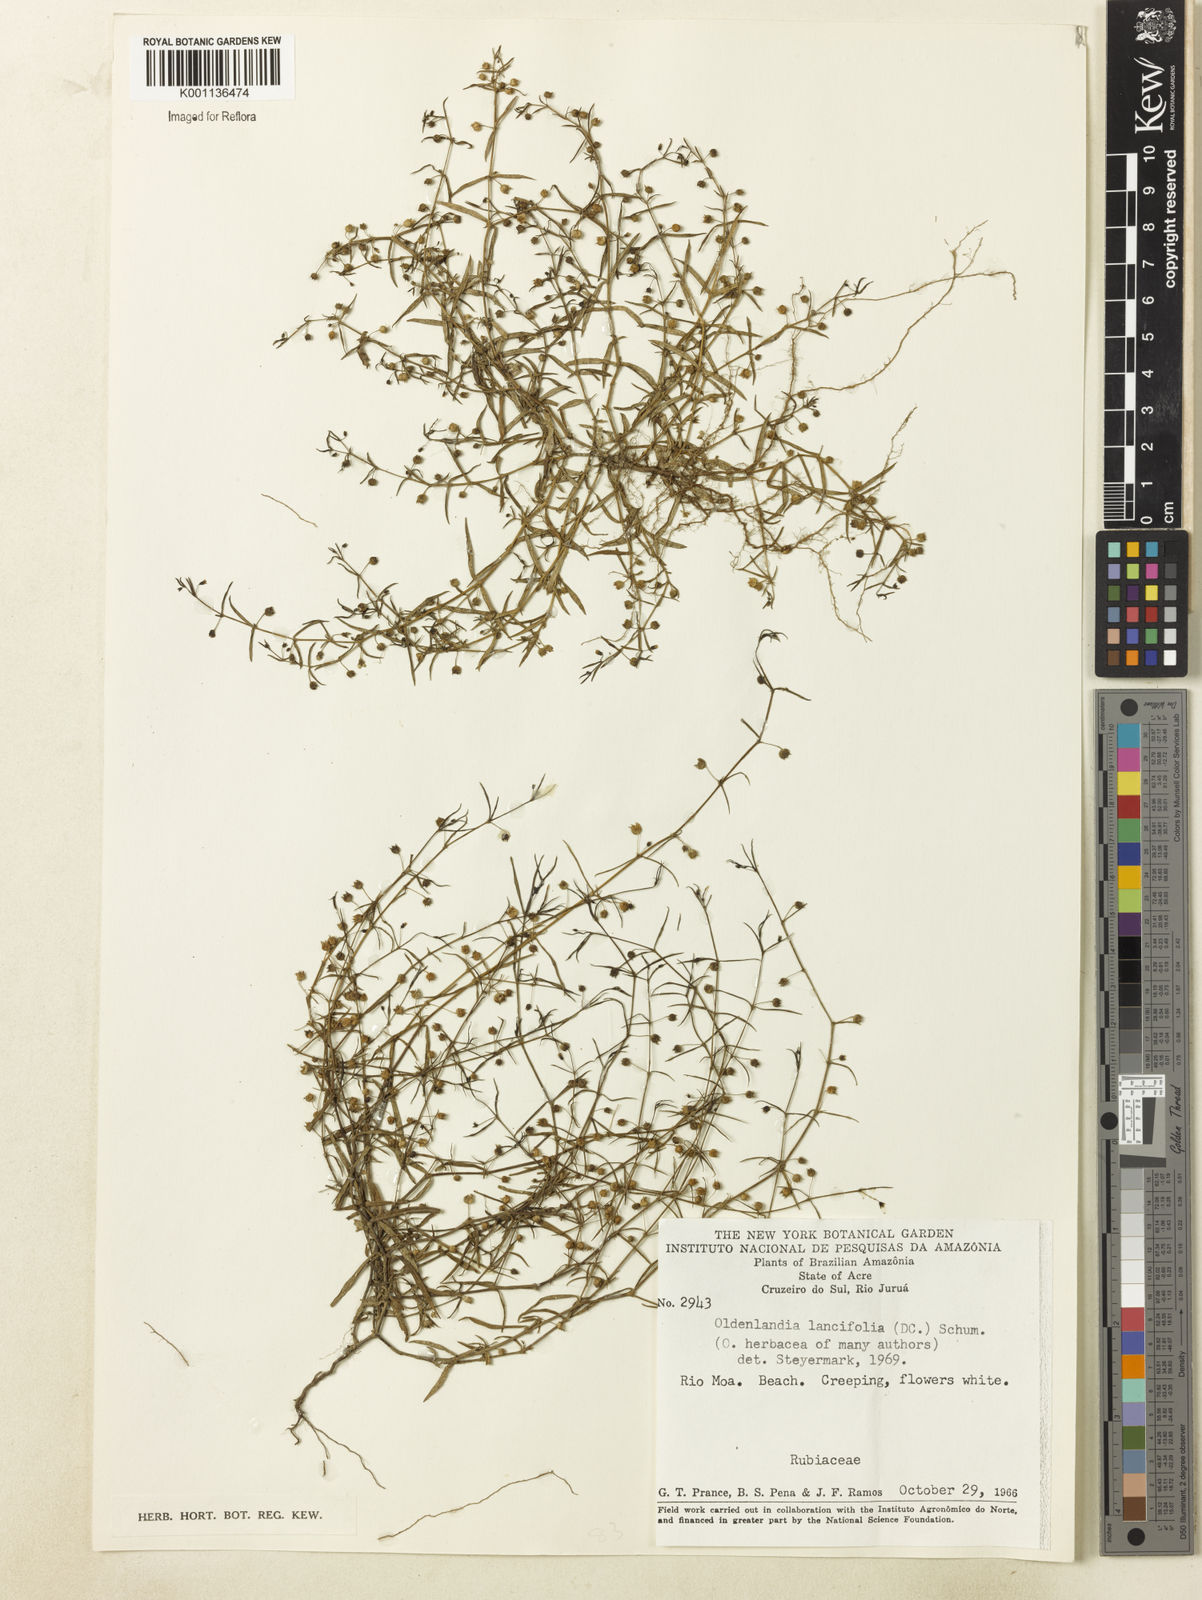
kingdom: Plantae
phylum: Tracheophyta
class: Magnoliopsida
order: Gentianales
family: Rubiaceae
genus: Oldenlandia
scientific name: Oldenlandia lancifolia
